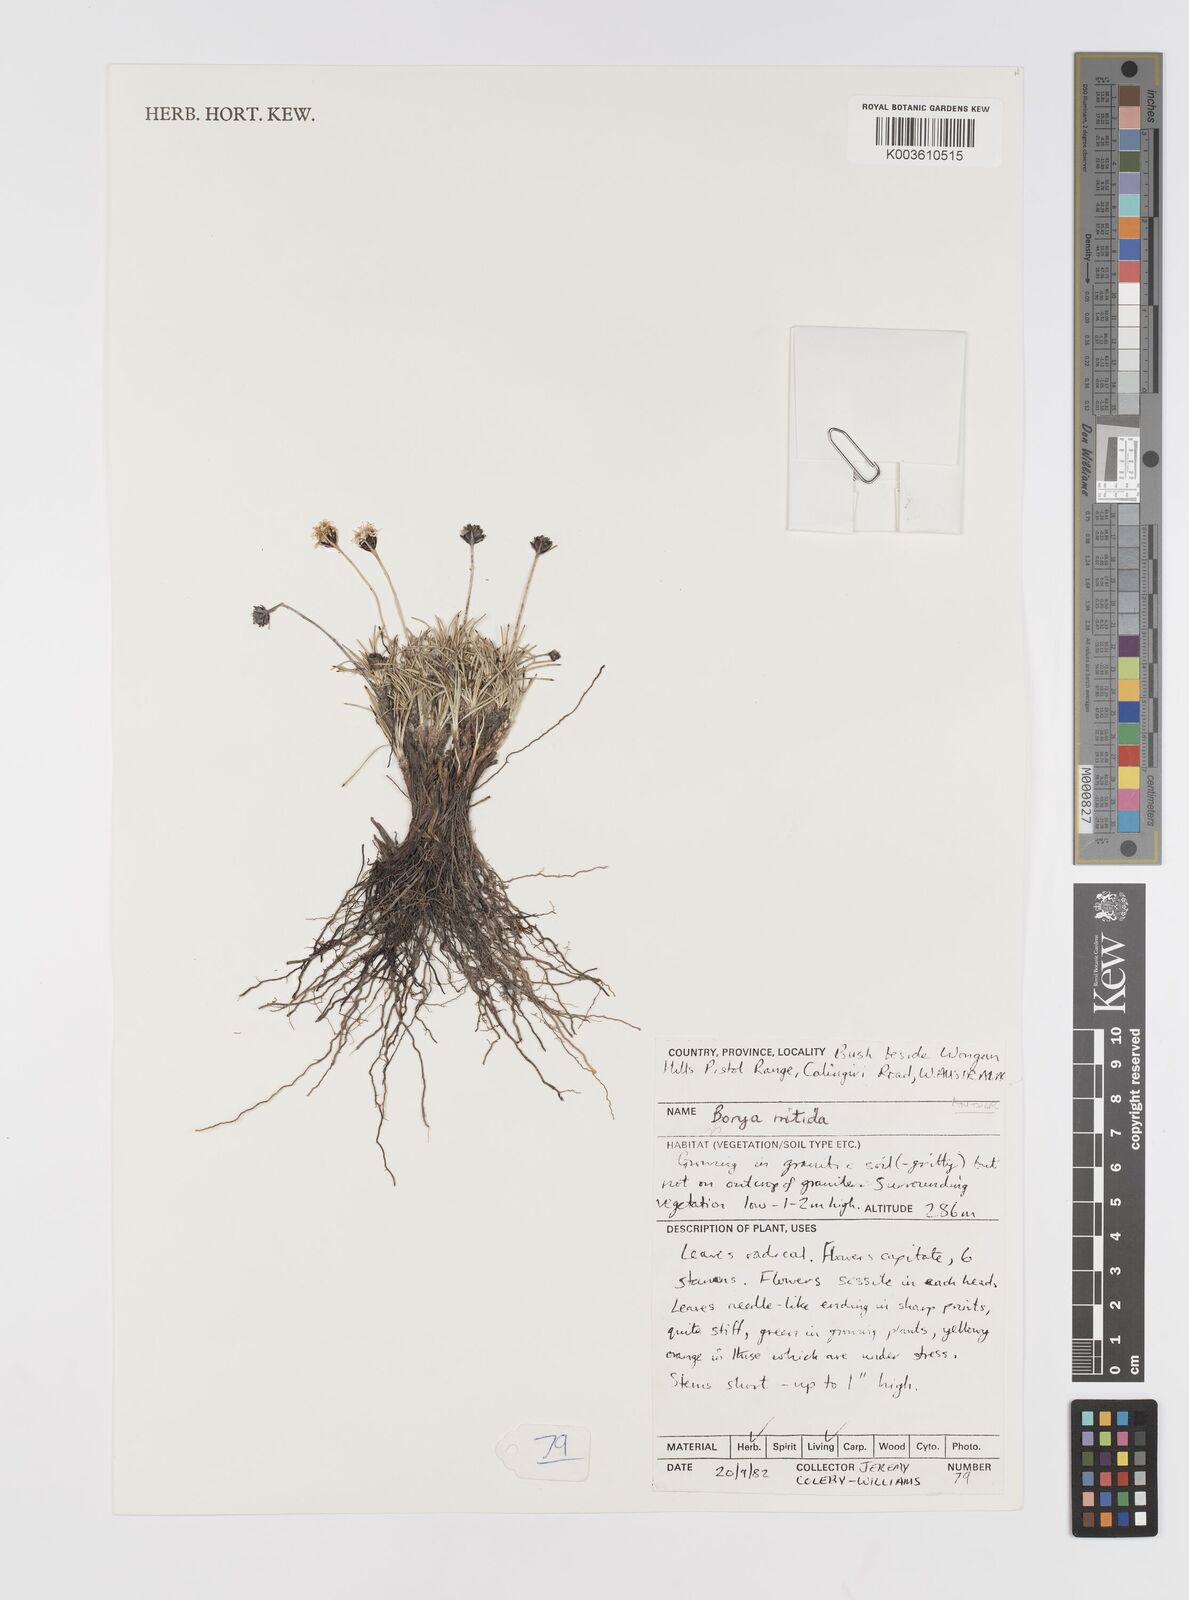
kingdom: Plantae
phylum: Tracheophyta
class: Liliopsida
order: Asparagales
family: Boryaceae
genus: Borya
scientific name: Borya nitida
